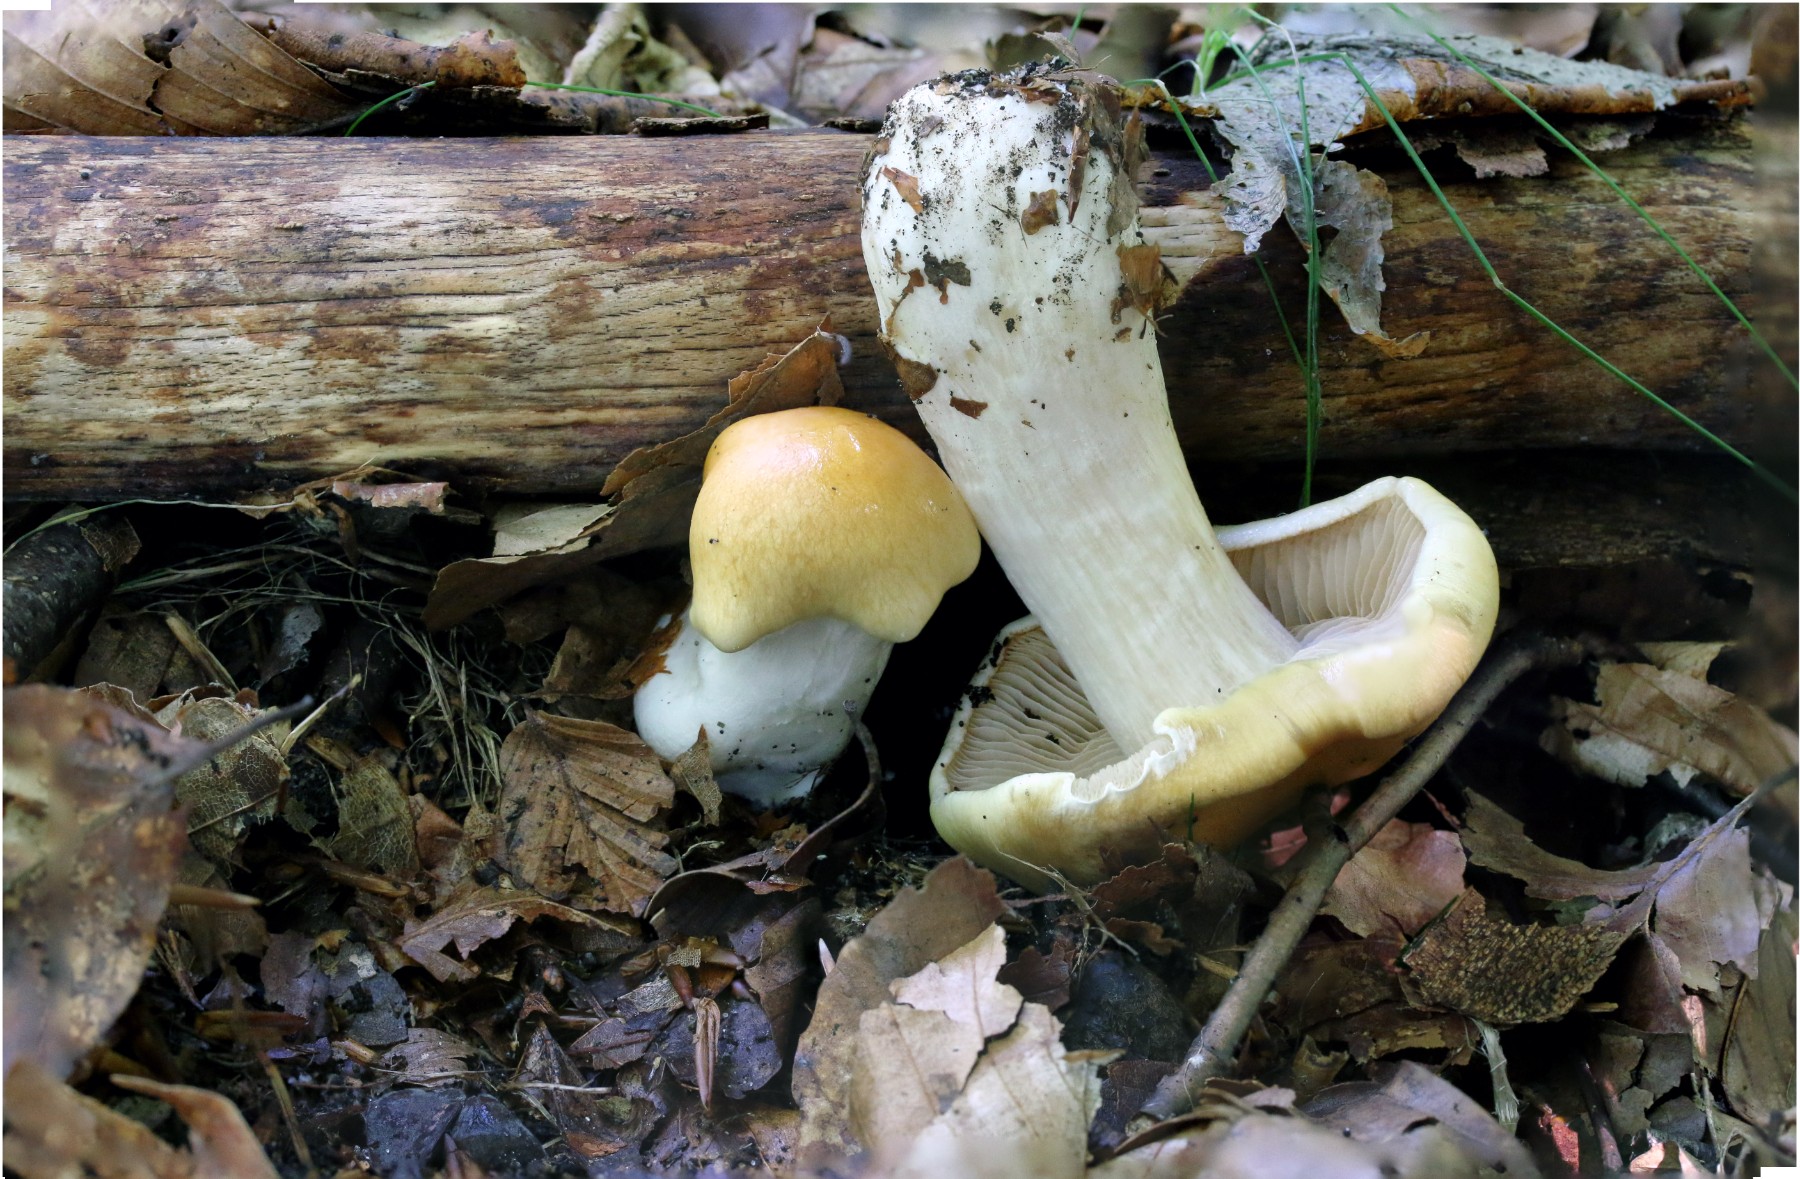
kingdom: Fungi
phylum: Basidiomycota
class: Agaricomycetes
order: Agaricales
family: Cortinariaceae
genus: Thaxterogaster
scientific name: Thaxterogaster emollitus
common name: besk slørhat
